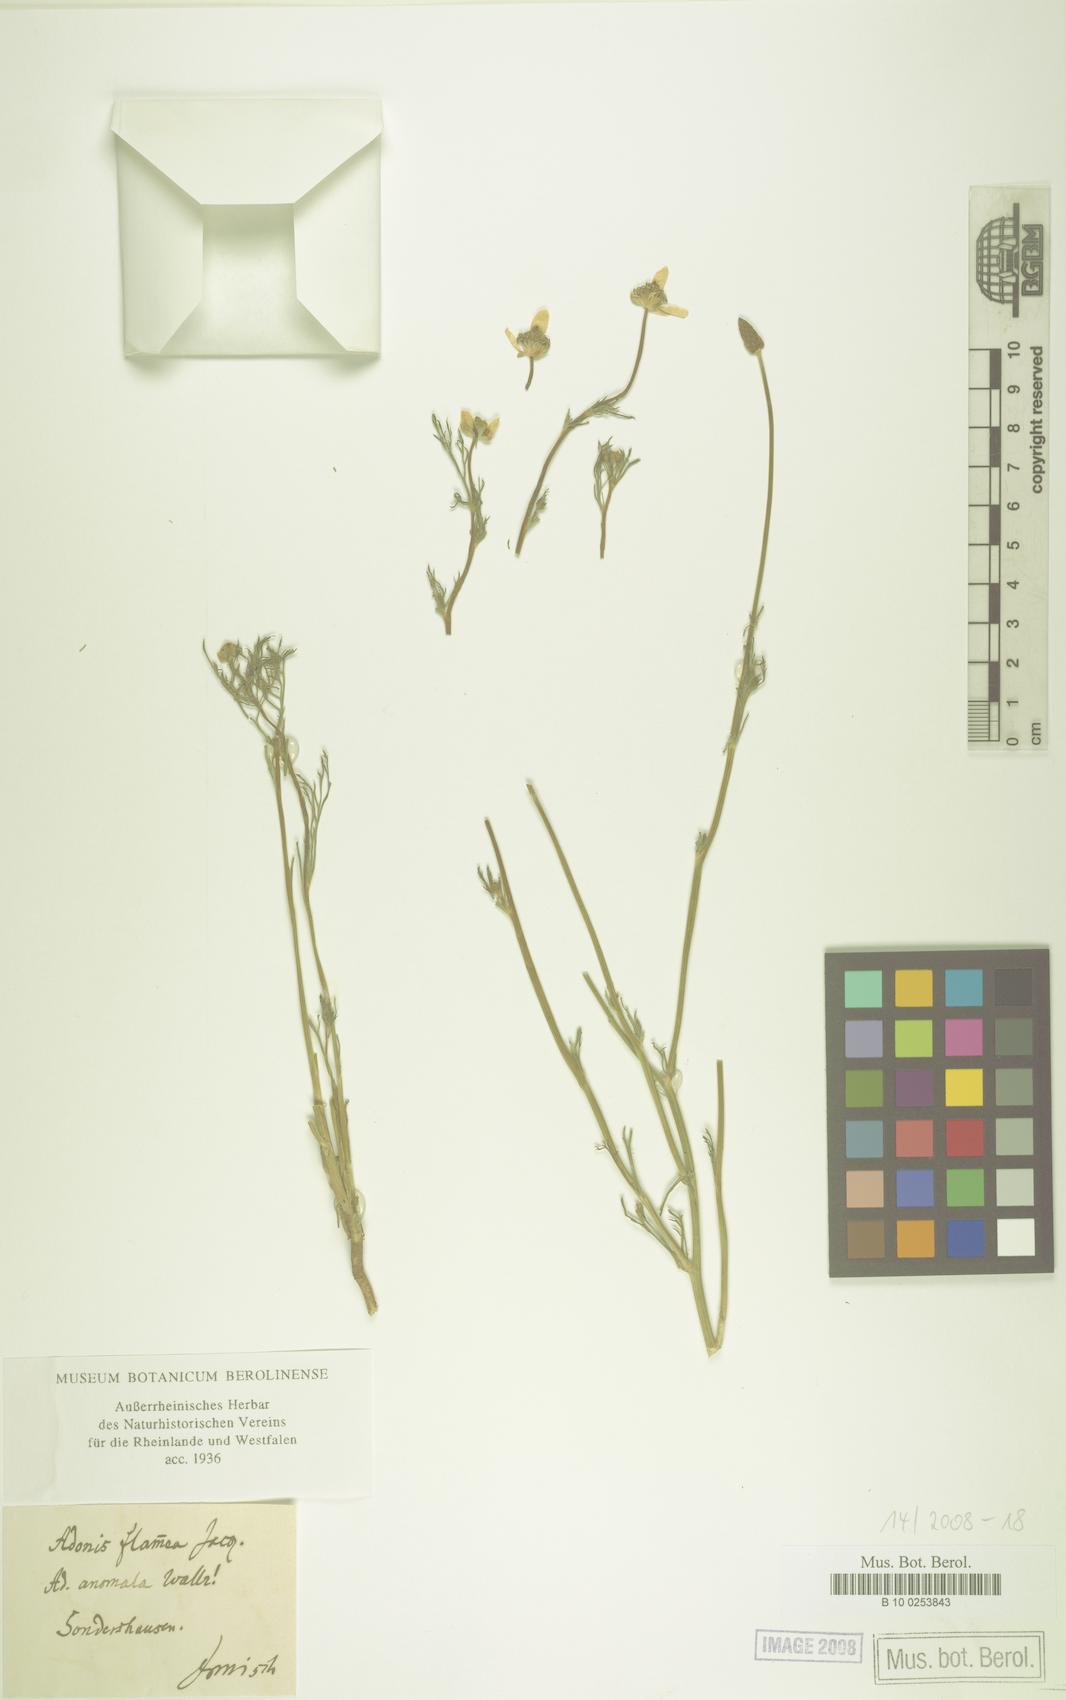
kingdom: Plantae
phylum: Tracheophyta
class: Magnoliopsida
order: Ranunculales
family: Ranunculaceae
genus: Adonis
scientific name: Adonis flammea
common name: Large pheasant's-eye
